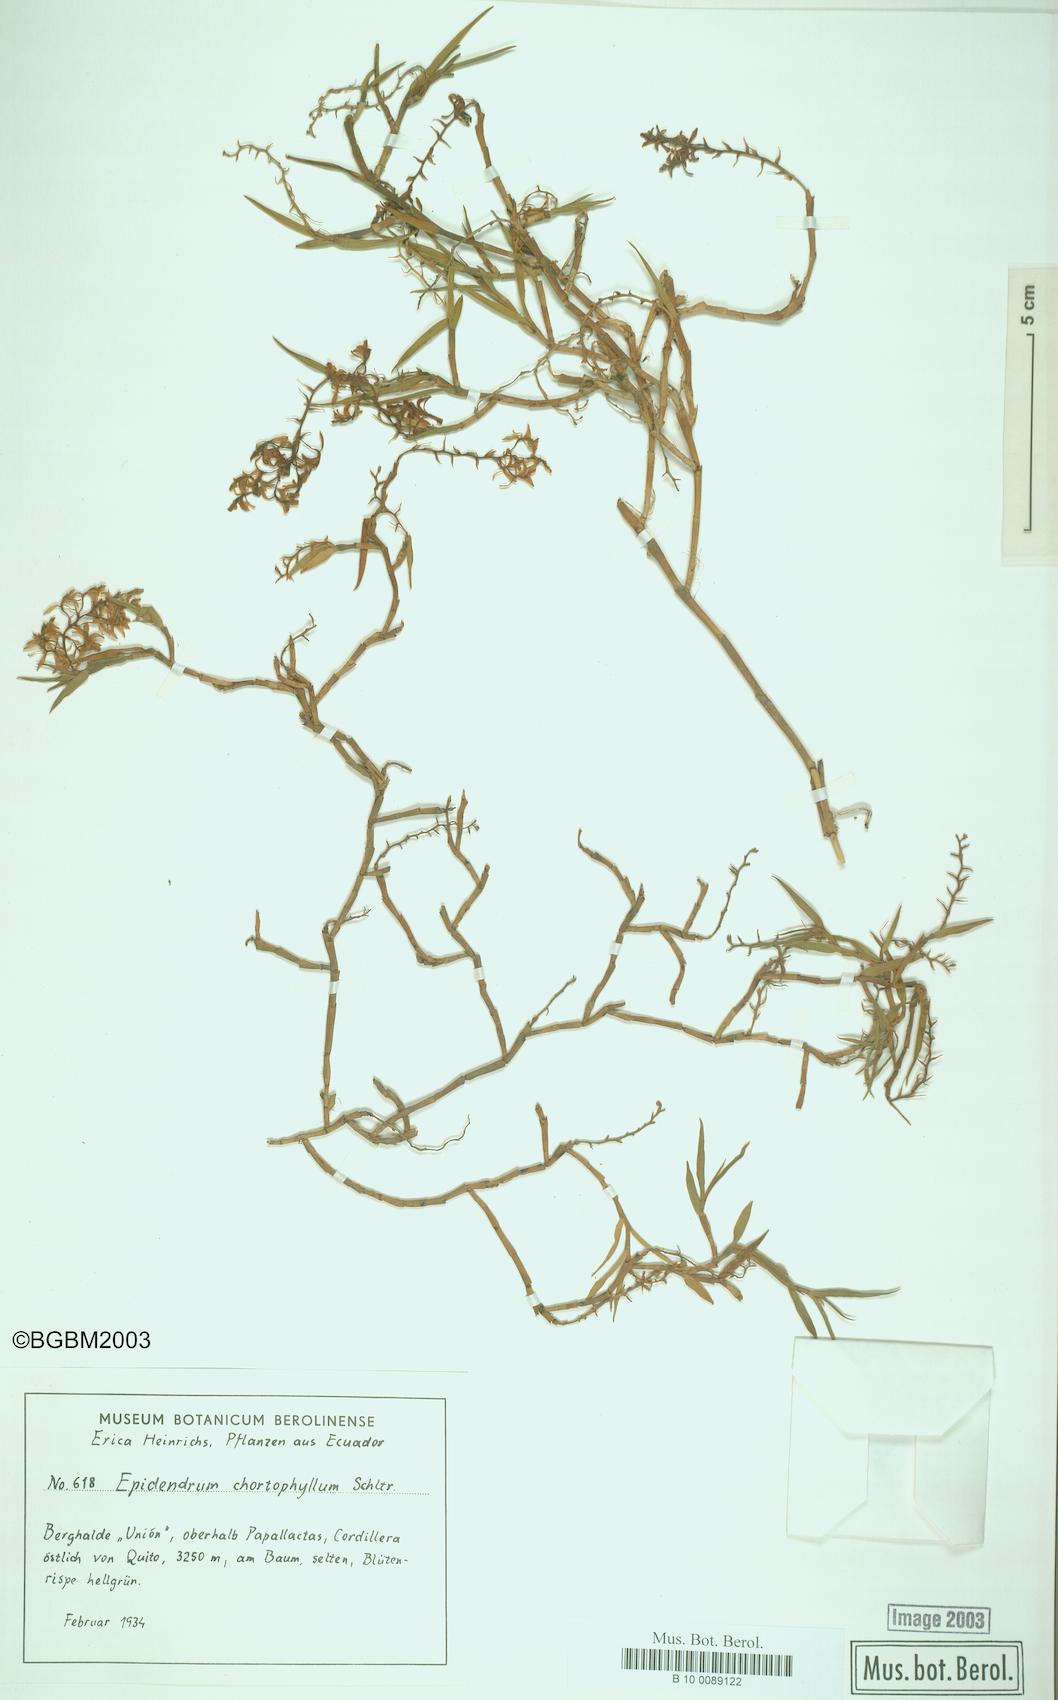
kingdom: Plantae
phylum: Tracheophyta
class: Liliopsida
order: Asparagales
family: Orchidaceae
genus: Epidendrum
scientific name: Epidendrum angustissimum
